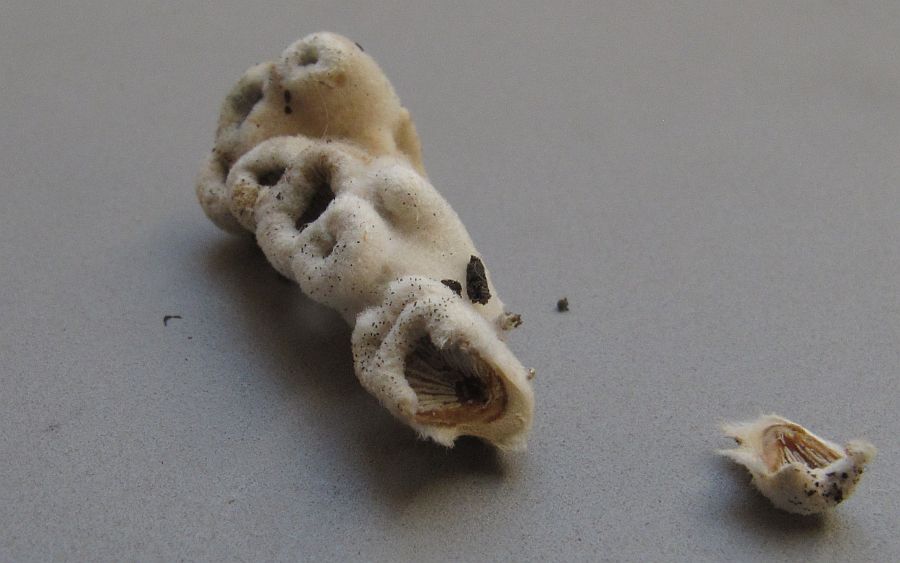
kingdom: Fungi
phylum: Basidiomycota
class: Agaricomycetes
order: Agaricales
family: Schizophyllaceae
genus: Schizophyllum
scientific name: Schizophyllum commune
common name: kløvblad
